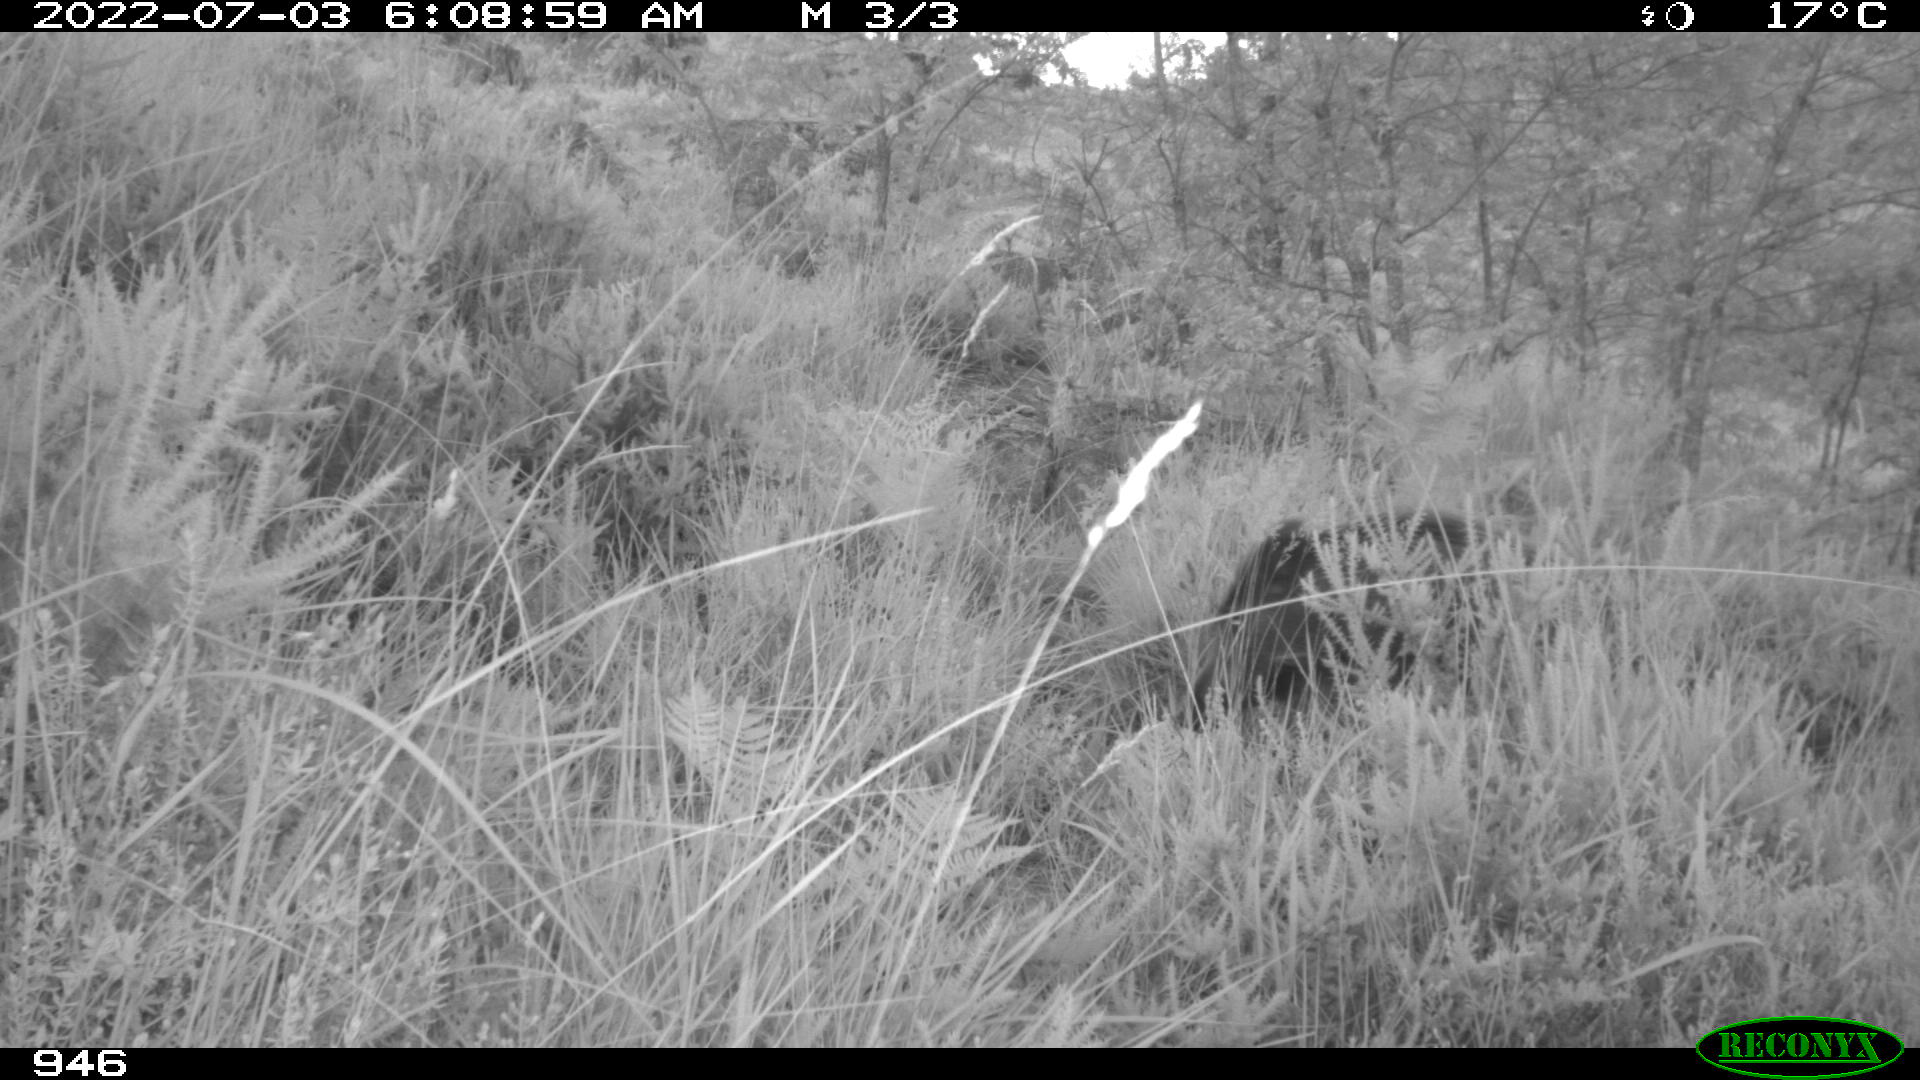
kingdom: Animalia
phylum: Chordata
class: Mammalia
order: Artiodactyla
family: Suidae
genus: Sus
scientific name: Sus scrofa
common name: Wild boar
